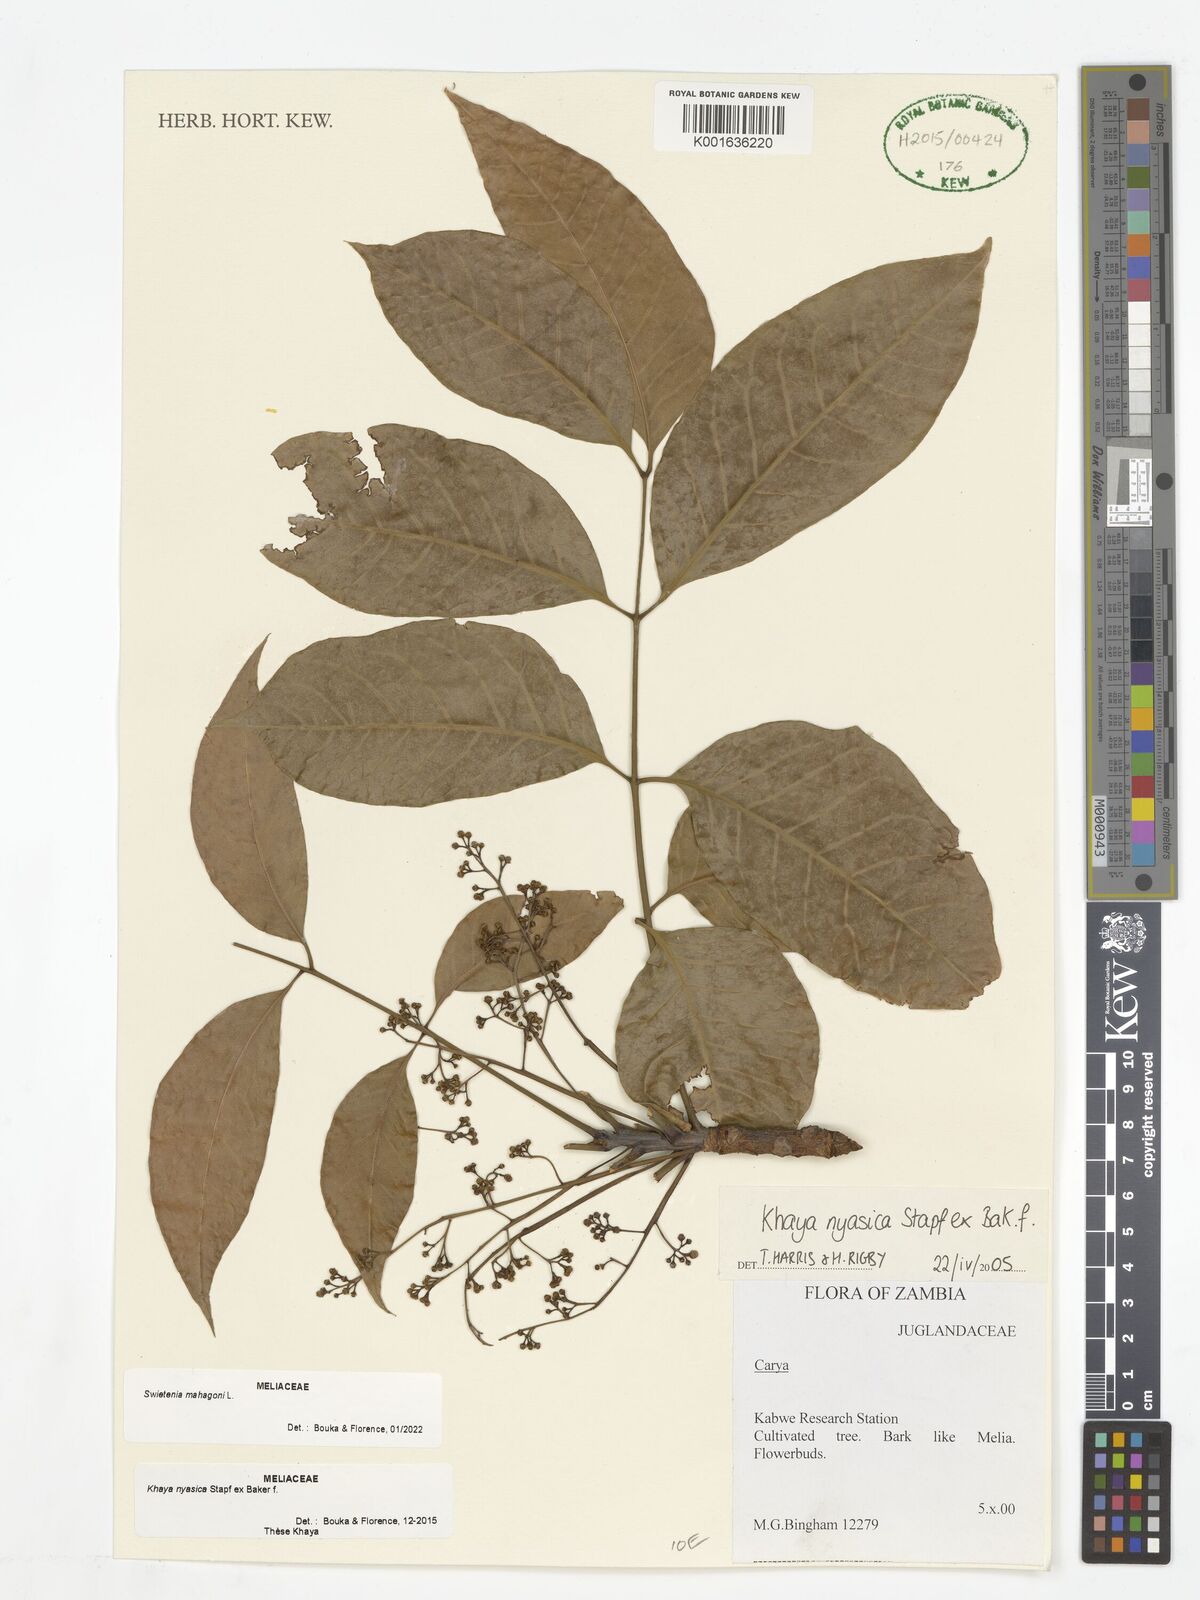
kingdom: Plantae
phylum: Tracheophyta
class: Magnoliopsida
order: Sapindales
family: Meliaceae
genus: Swietenia
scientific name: Swietenia mahagoni
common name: West indian mahogany
